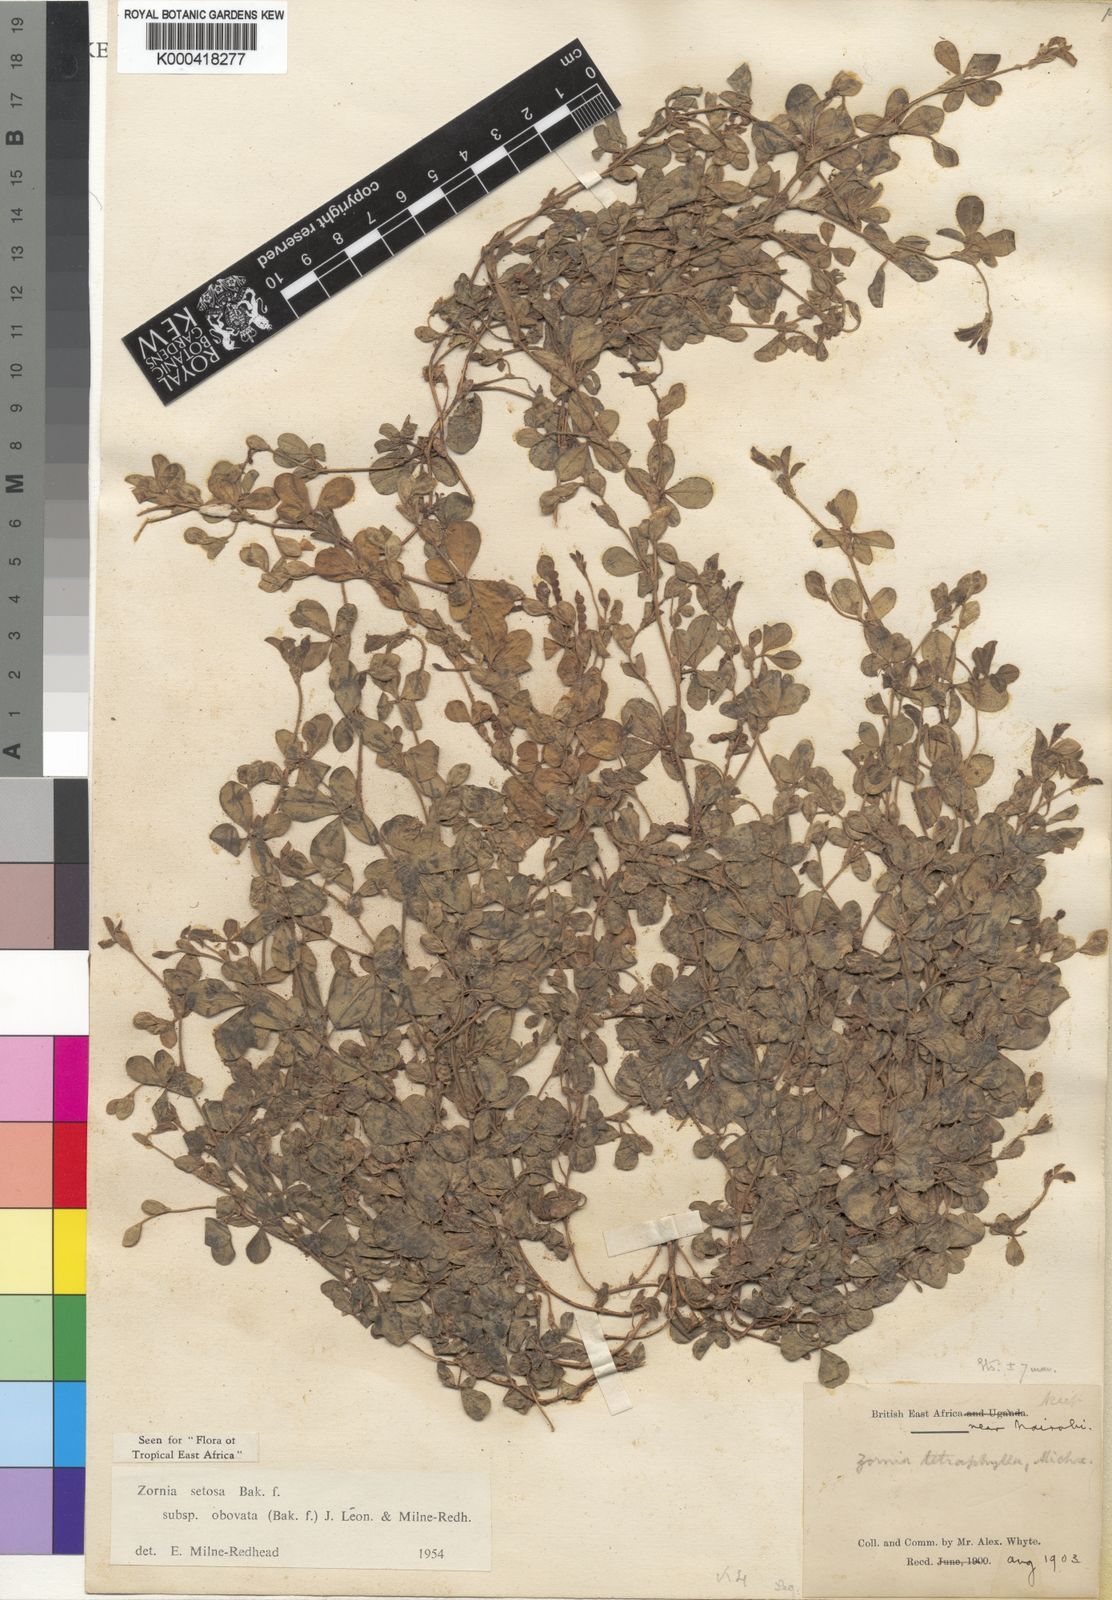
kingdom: Plantae
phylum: Tracheophyta
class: Magnoliopsida
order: Fabales
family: Fabaceae
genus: Zornia
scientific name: Zornia setosa
